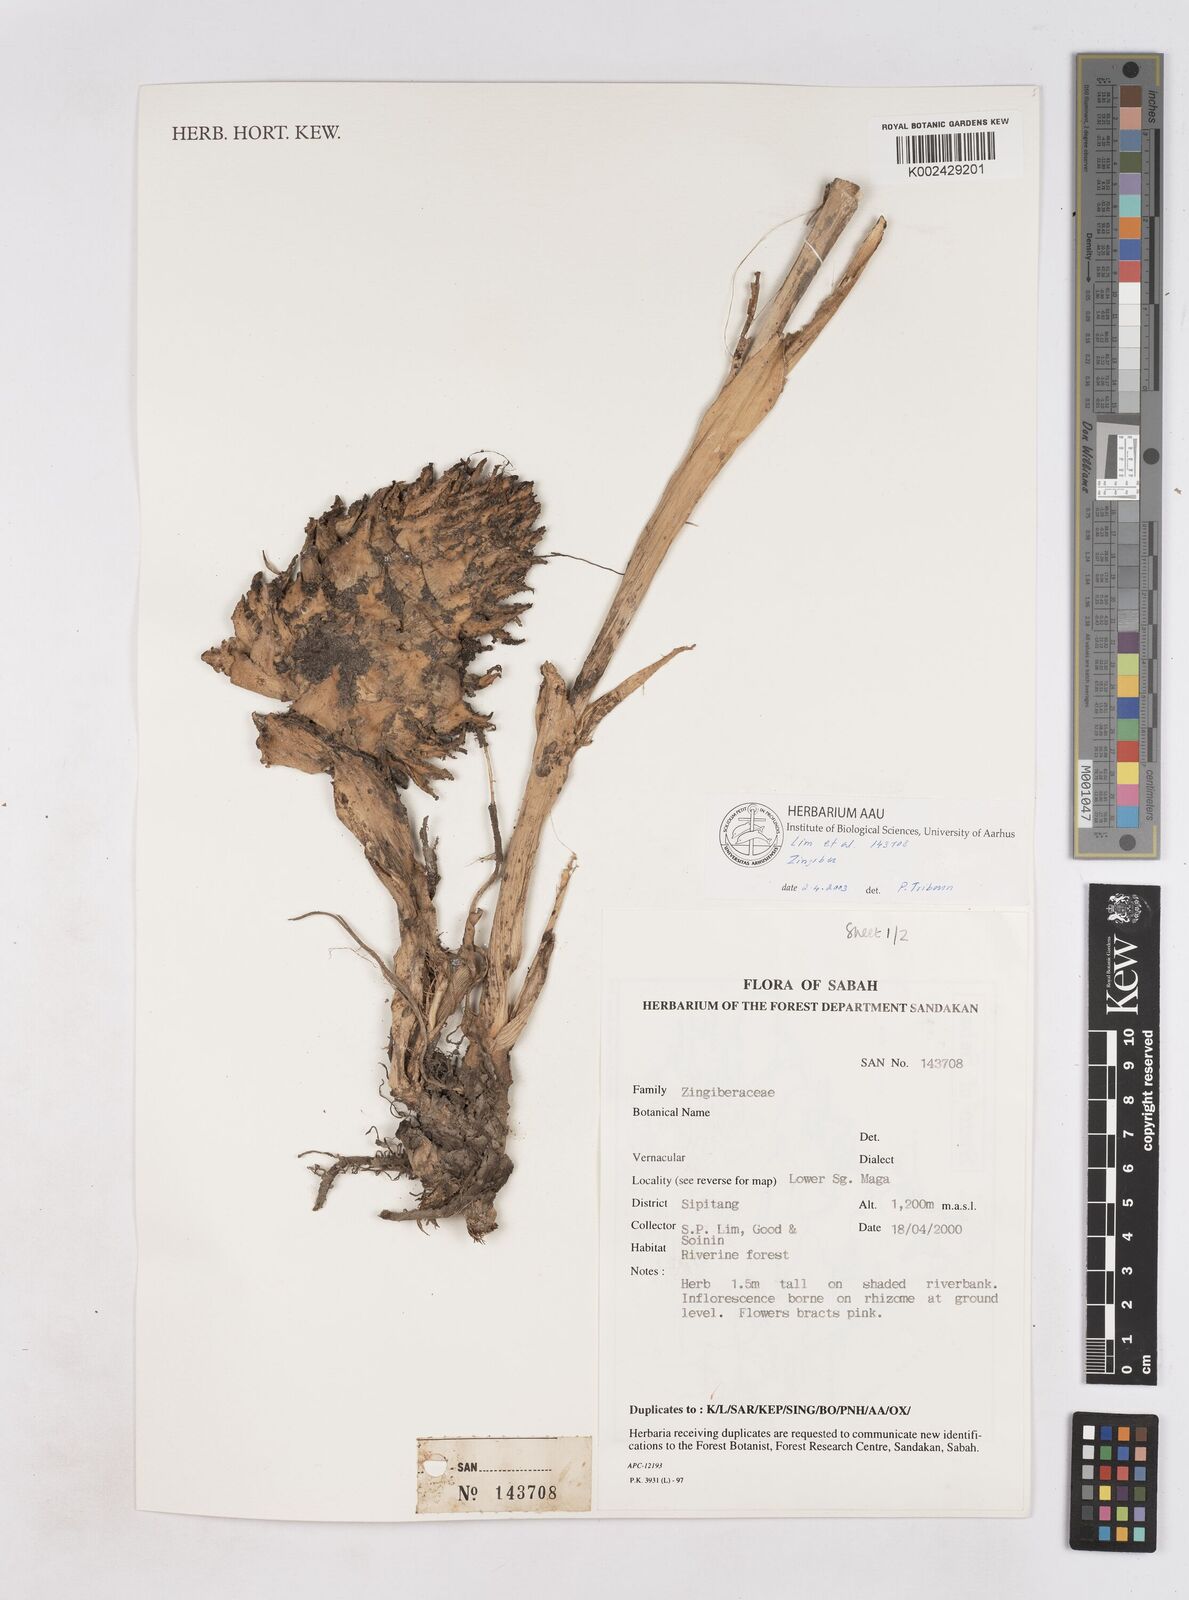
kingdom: Plantae
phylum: Tracheophyta
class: Liliopsida
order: Zingiberales
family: Zingiberaceae
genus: Zingiber
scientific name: Zingiber
